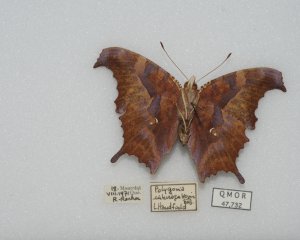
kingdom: Animalia
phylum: Arthropoda
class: Insecta
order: Lepidoptera
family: Nymphalidae
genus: Polygonia
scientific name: Polygonia interrogationis
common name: Question Mark
